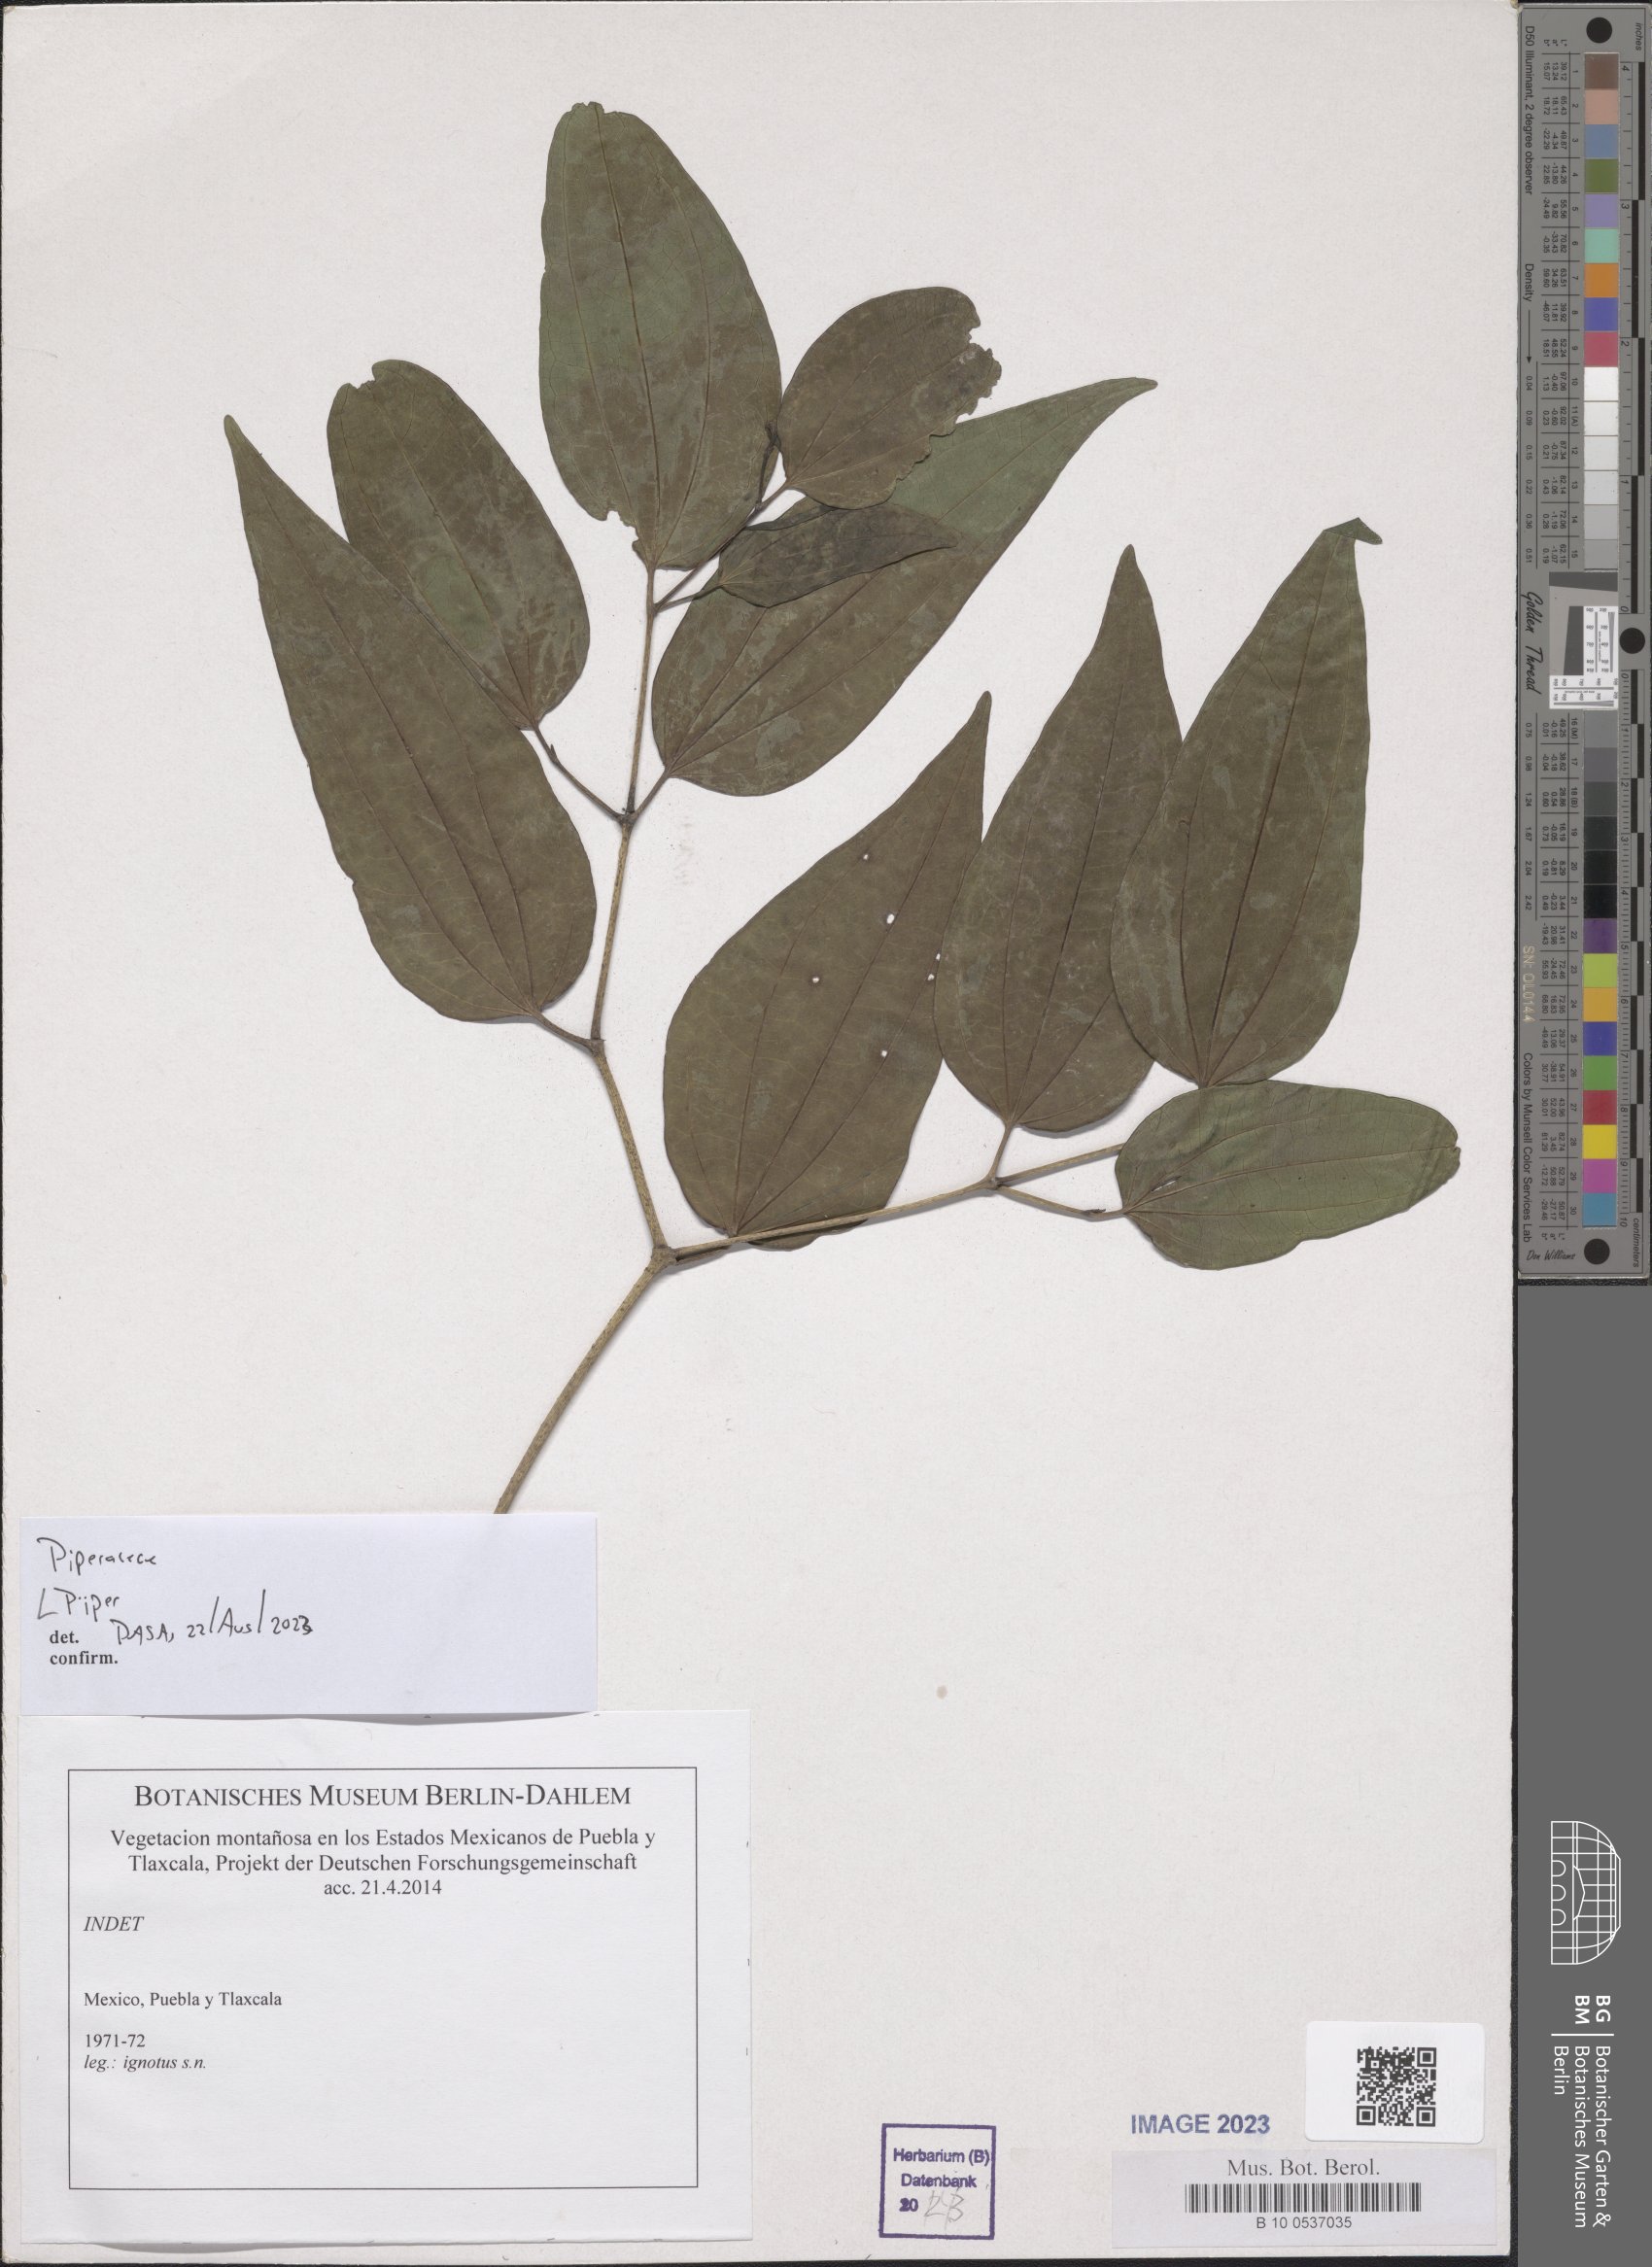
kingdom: Plantae
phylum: Tracheophyta
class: Magnoliopsida
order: Piperales
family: Piperaceae
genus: Piper
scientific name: Piper
